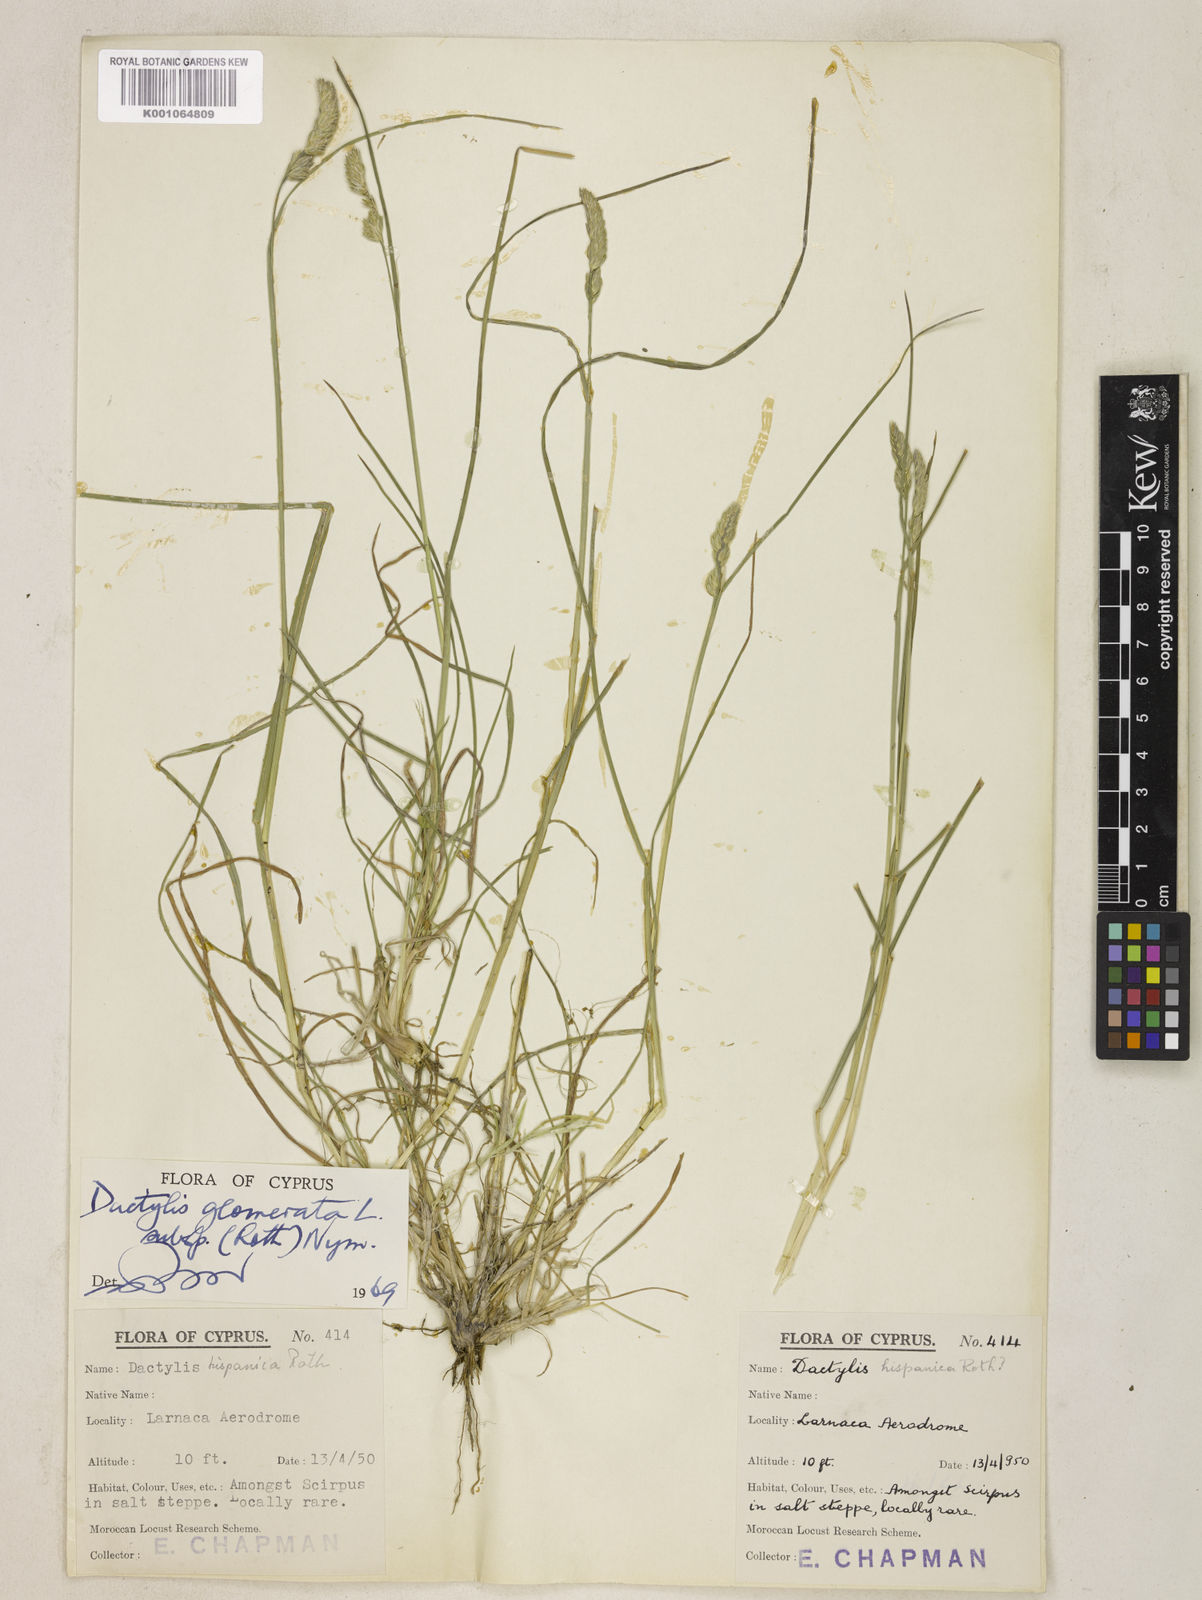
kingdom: Plantae
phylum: Tracheophyta
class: Liliopsida
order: Poales
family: Poaceae
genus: Dactylis
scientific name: Dactylis glomerata
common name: Orchardgrass
